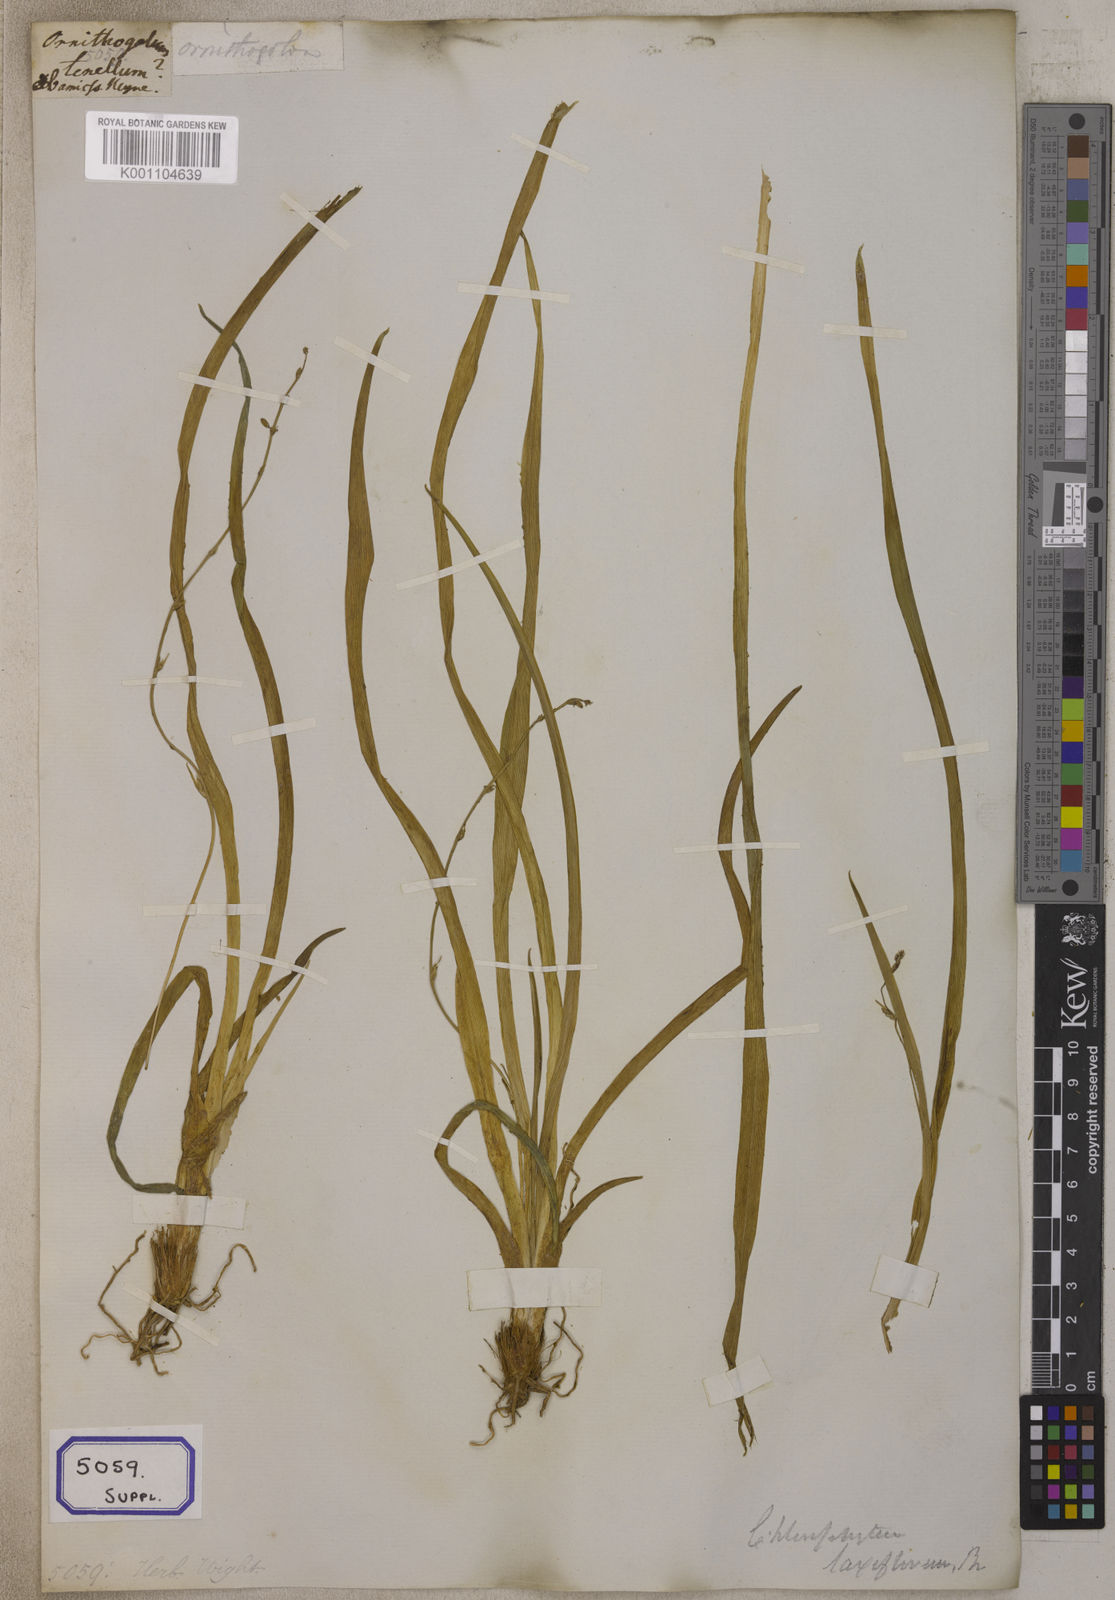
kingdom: Plantae
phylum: Tracheophyta
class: Liliopsida
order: Asparagales
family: Asparagaceae
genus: Chlorophytum
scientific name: Chlorophytum
